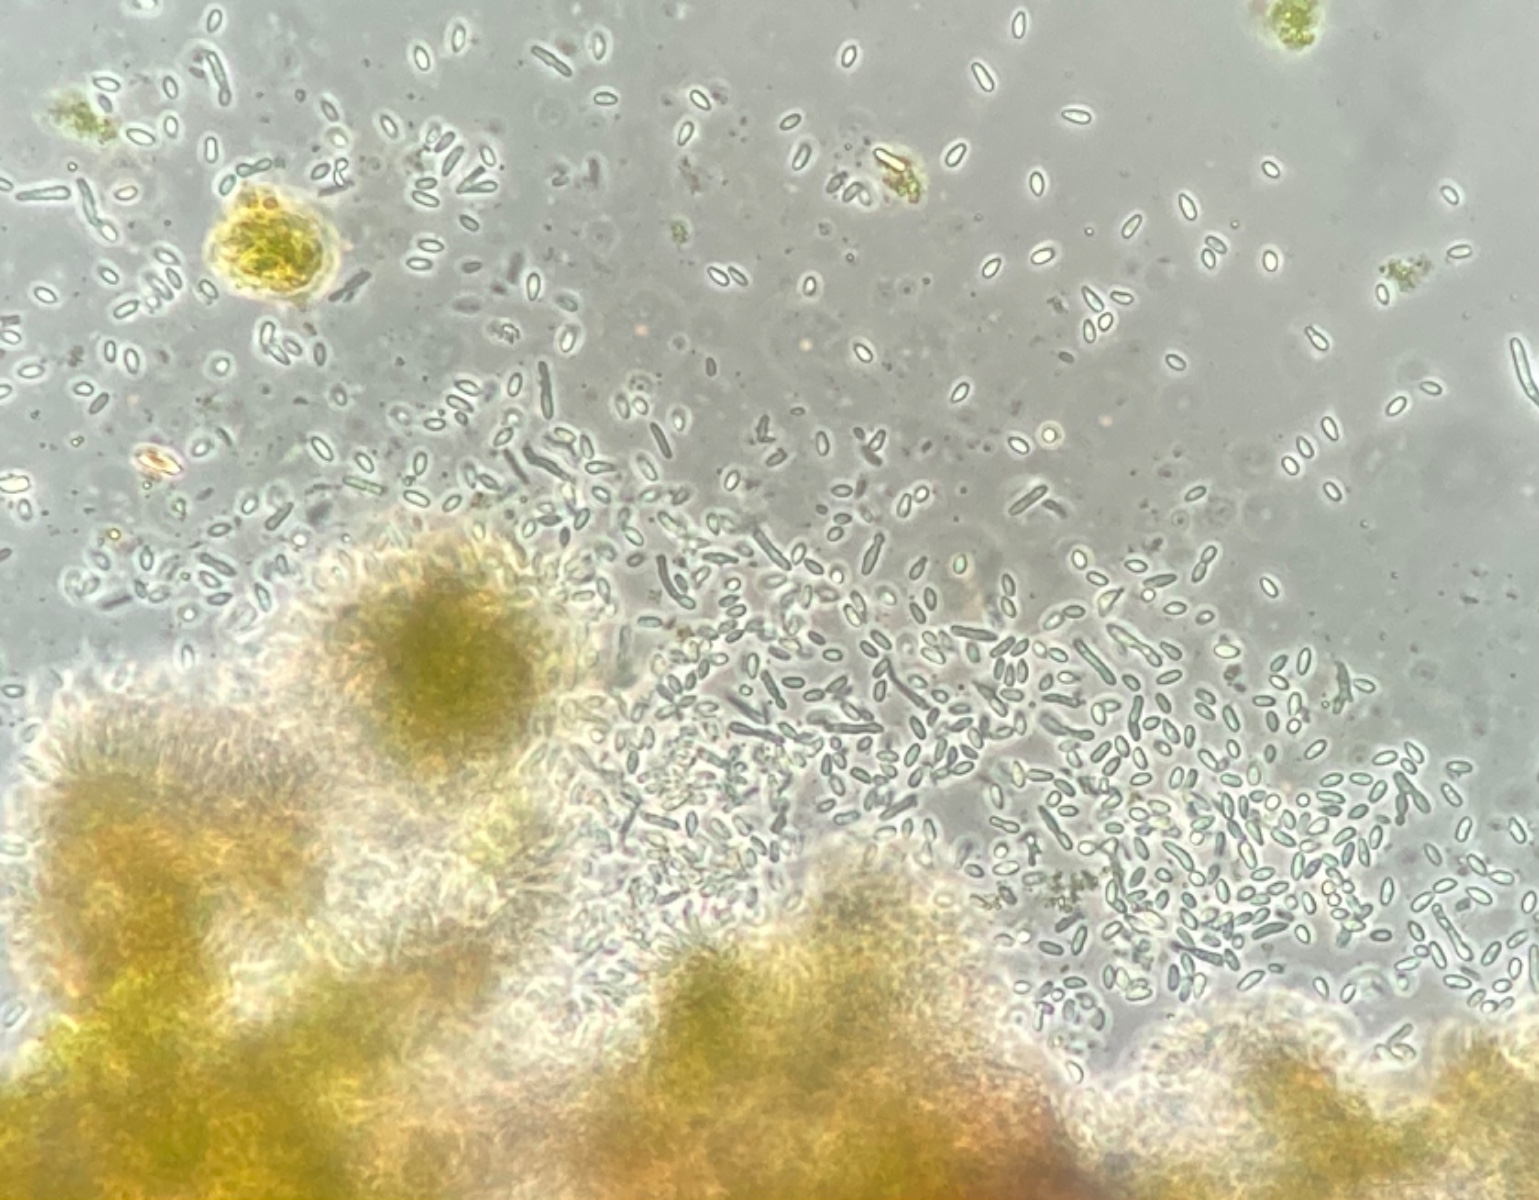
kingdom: Fungi
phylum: Ascomycota
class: Arthoniomycetes
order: Arthoniales
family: Opegraphaceae
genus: Opegrapha
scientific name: Opegrapha vermicellifera
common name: nåleprikket bogstavlav
